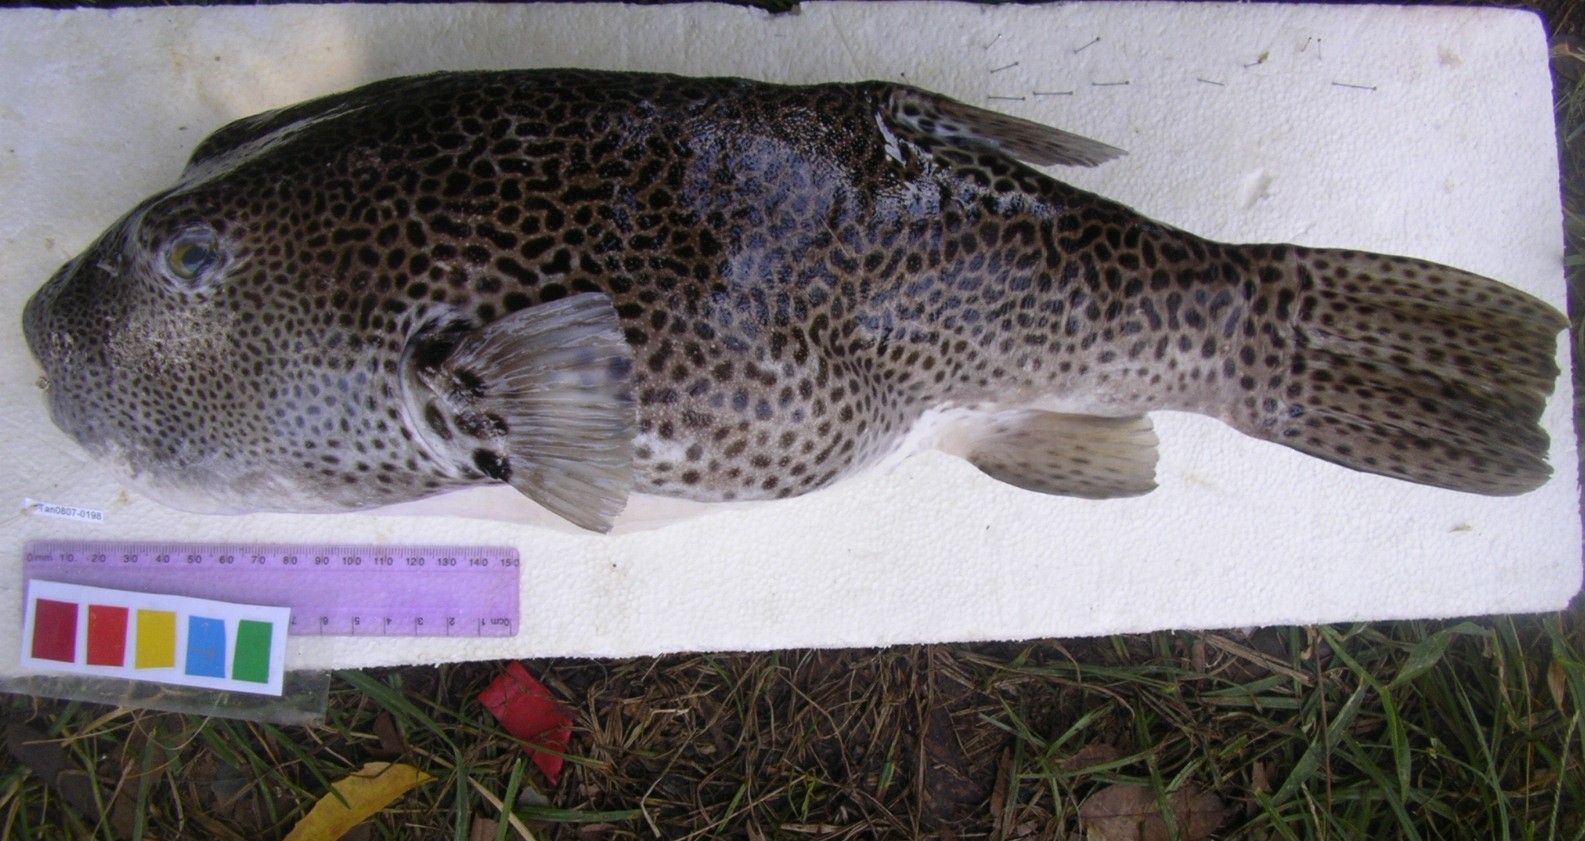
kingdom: Animalia
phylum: Chordata
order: Tetraodontiformes
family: Tetraodontidae
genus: Arothron
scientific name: Arothron stellatus
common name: Star blaasop
